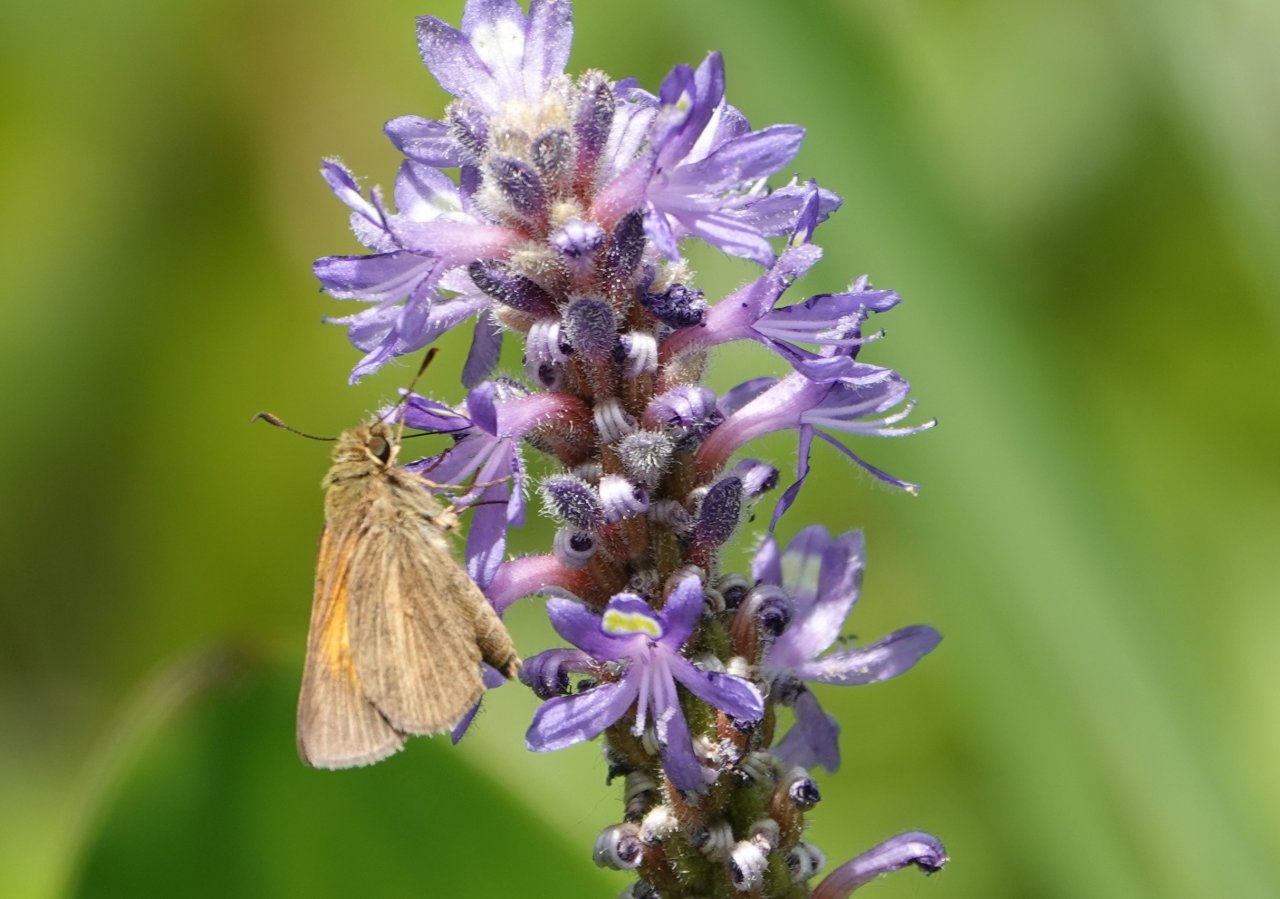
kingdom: Animalia
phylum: Arthropoda
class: Insecta
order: Lepidoptera
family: Hesperiidae
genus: Poanes
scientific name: Poanes aaroni
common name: Aaron's Skipper
